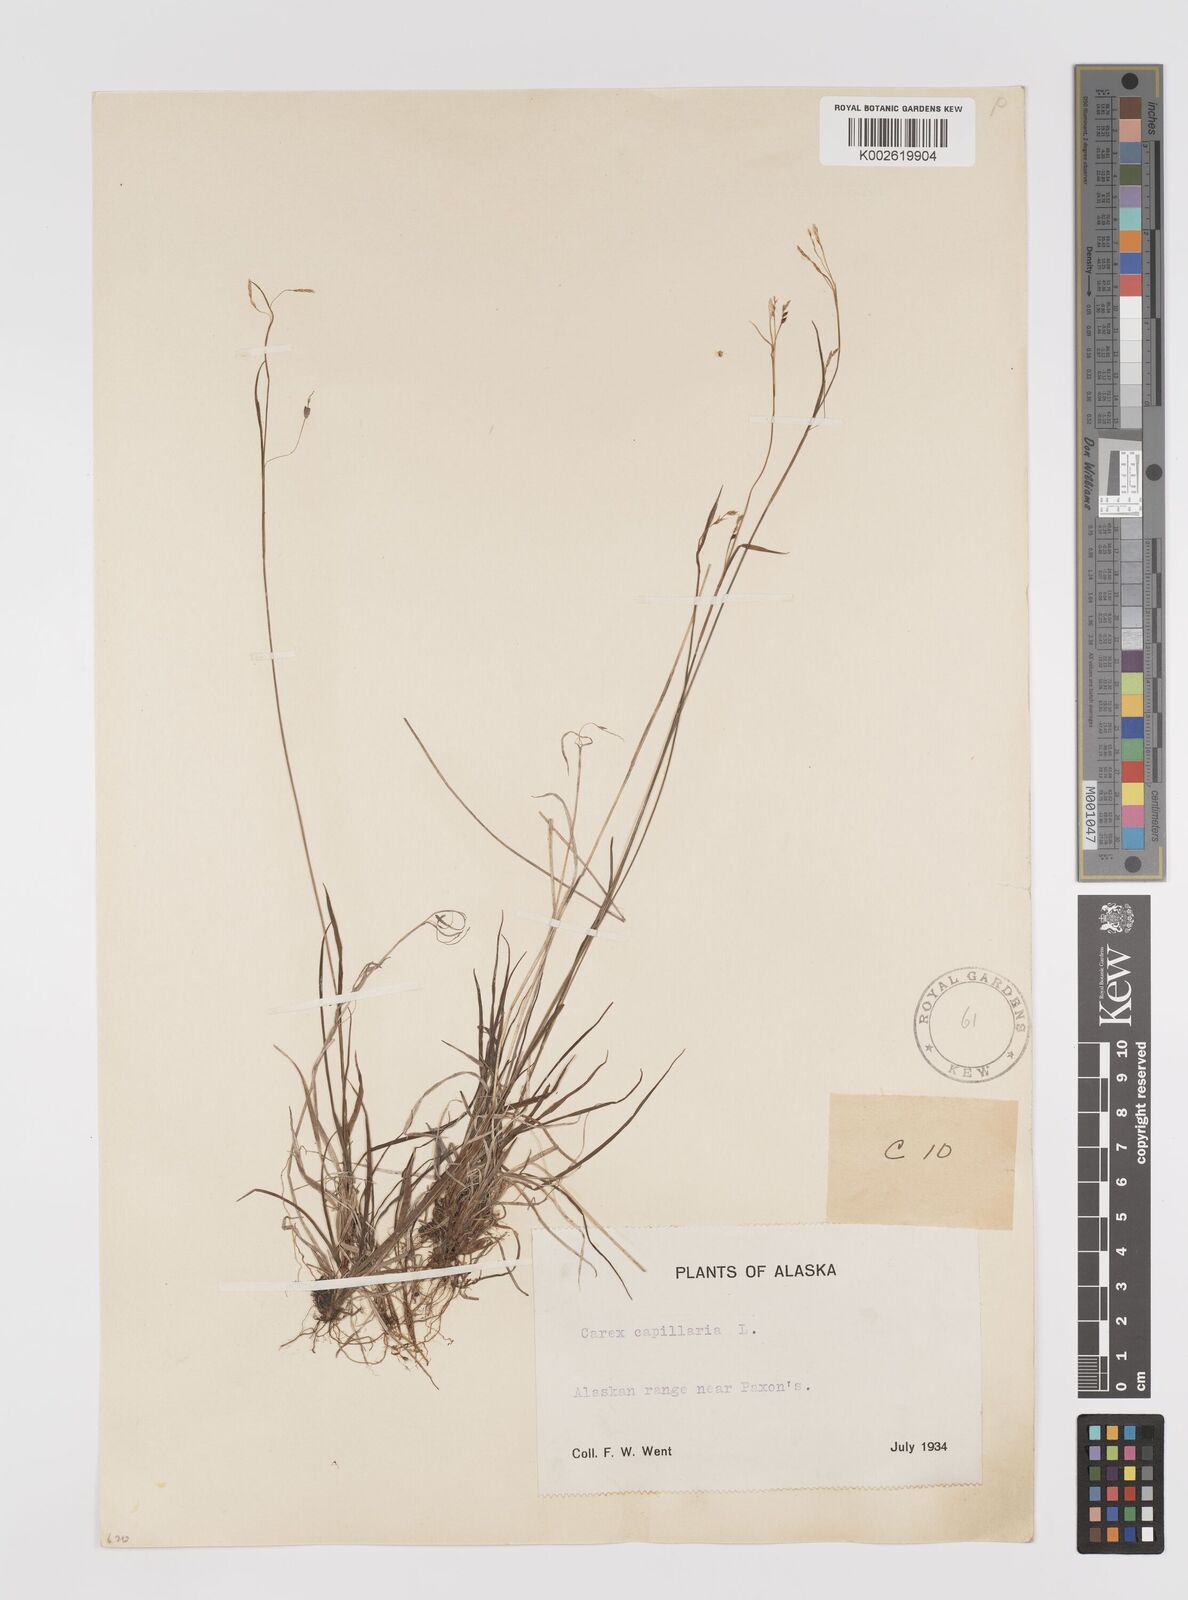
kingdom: Plantae
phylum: Tracheophyta
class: Liliopsida
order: Poales
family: Cyperaceae
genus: Carex
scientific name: Carex capillaris
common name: Hair sedge
